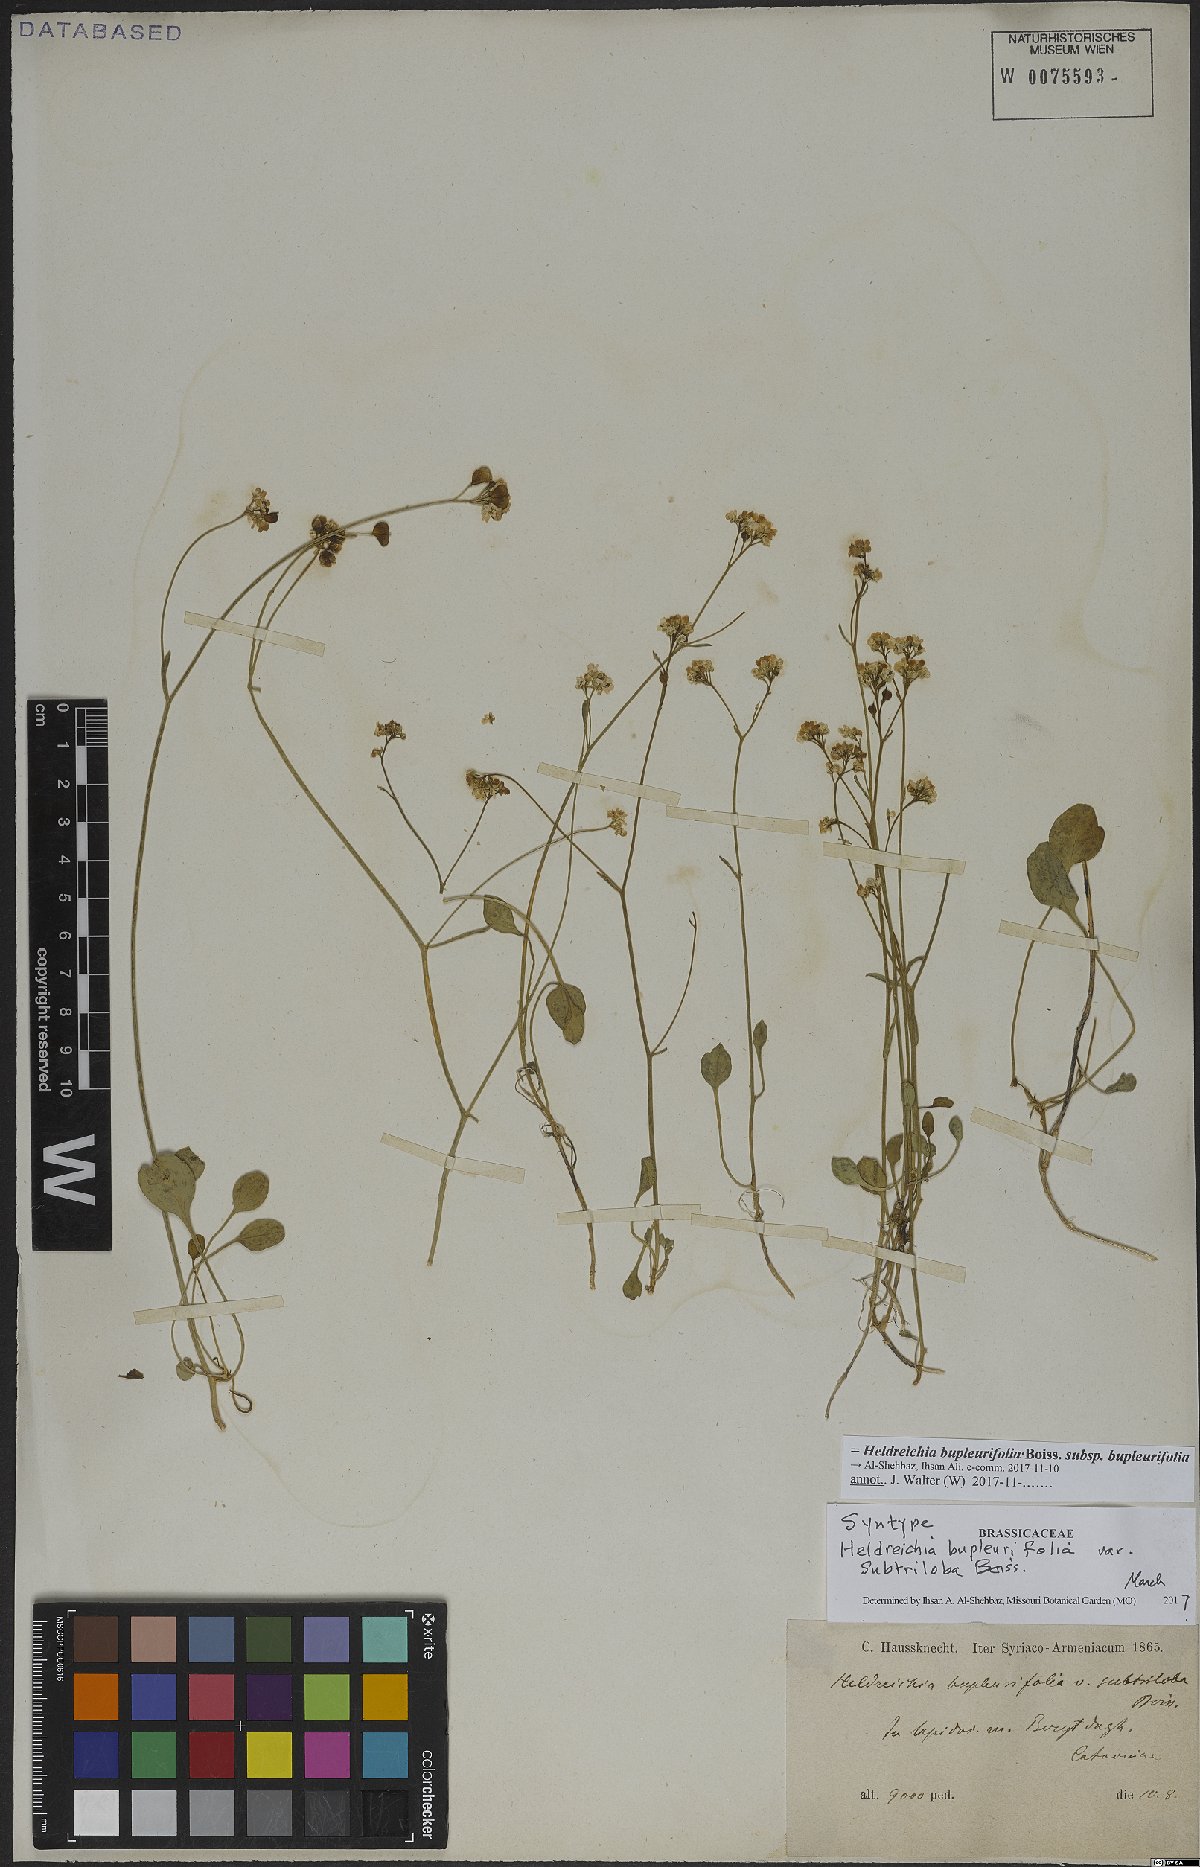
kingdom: Plantae
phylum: Tracheophyta
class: Magnoliopsida
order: Brassicales
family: Brassicaceae
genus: Heldreichia
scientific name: Heldreichia bupleurifolia
